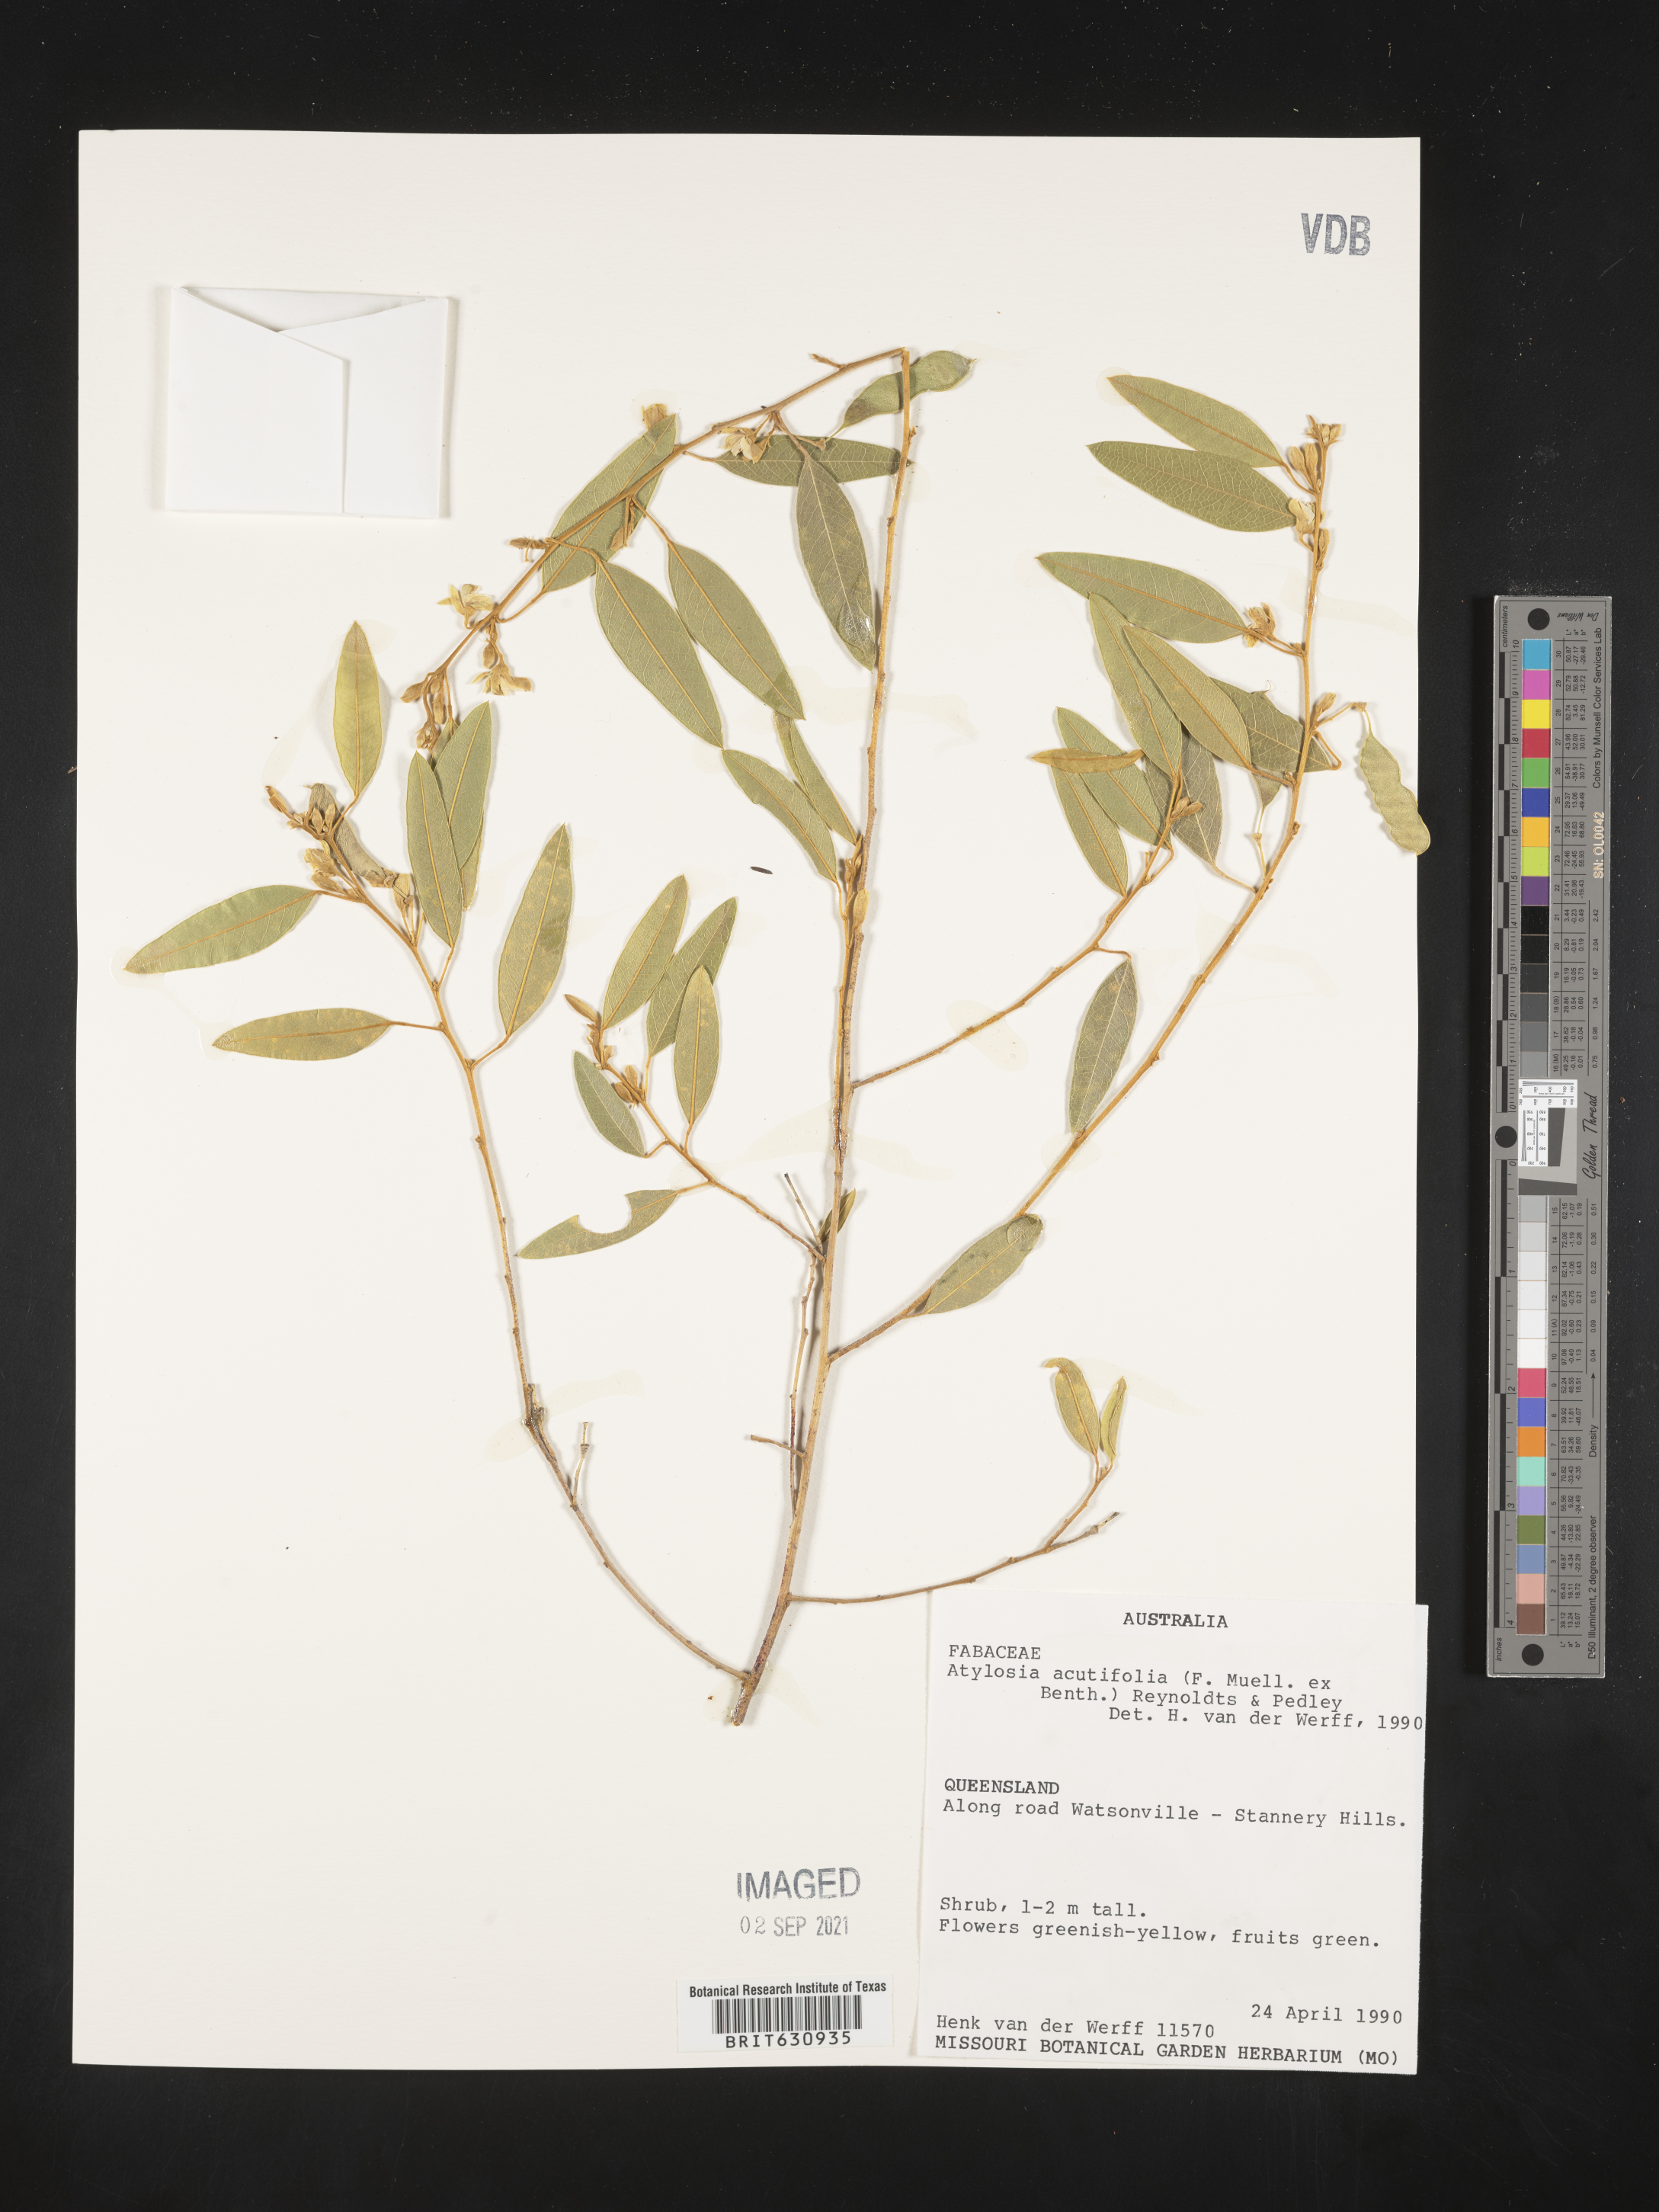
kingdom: Plantae
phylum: Tracheophyta
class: Magnoliopsida
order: Fabales
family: Fabaceae
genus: Cajanus
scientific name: Cajanus
